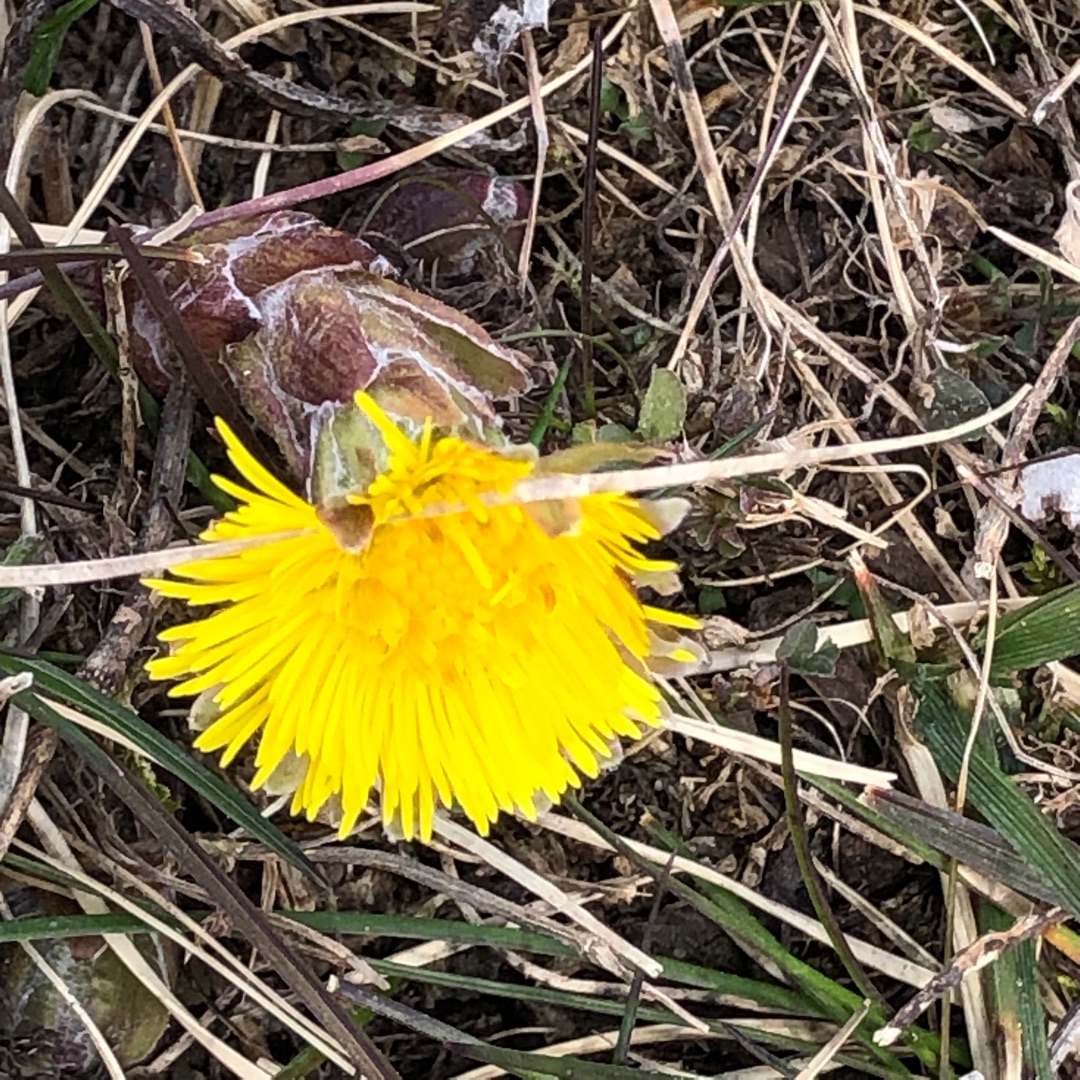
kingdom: Plantae
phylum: Tracheophyta
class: Magnoliopsida
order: Asterales
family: Asteraceae
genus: Tussilago
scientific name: Tussilago farfara
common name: Følfod
